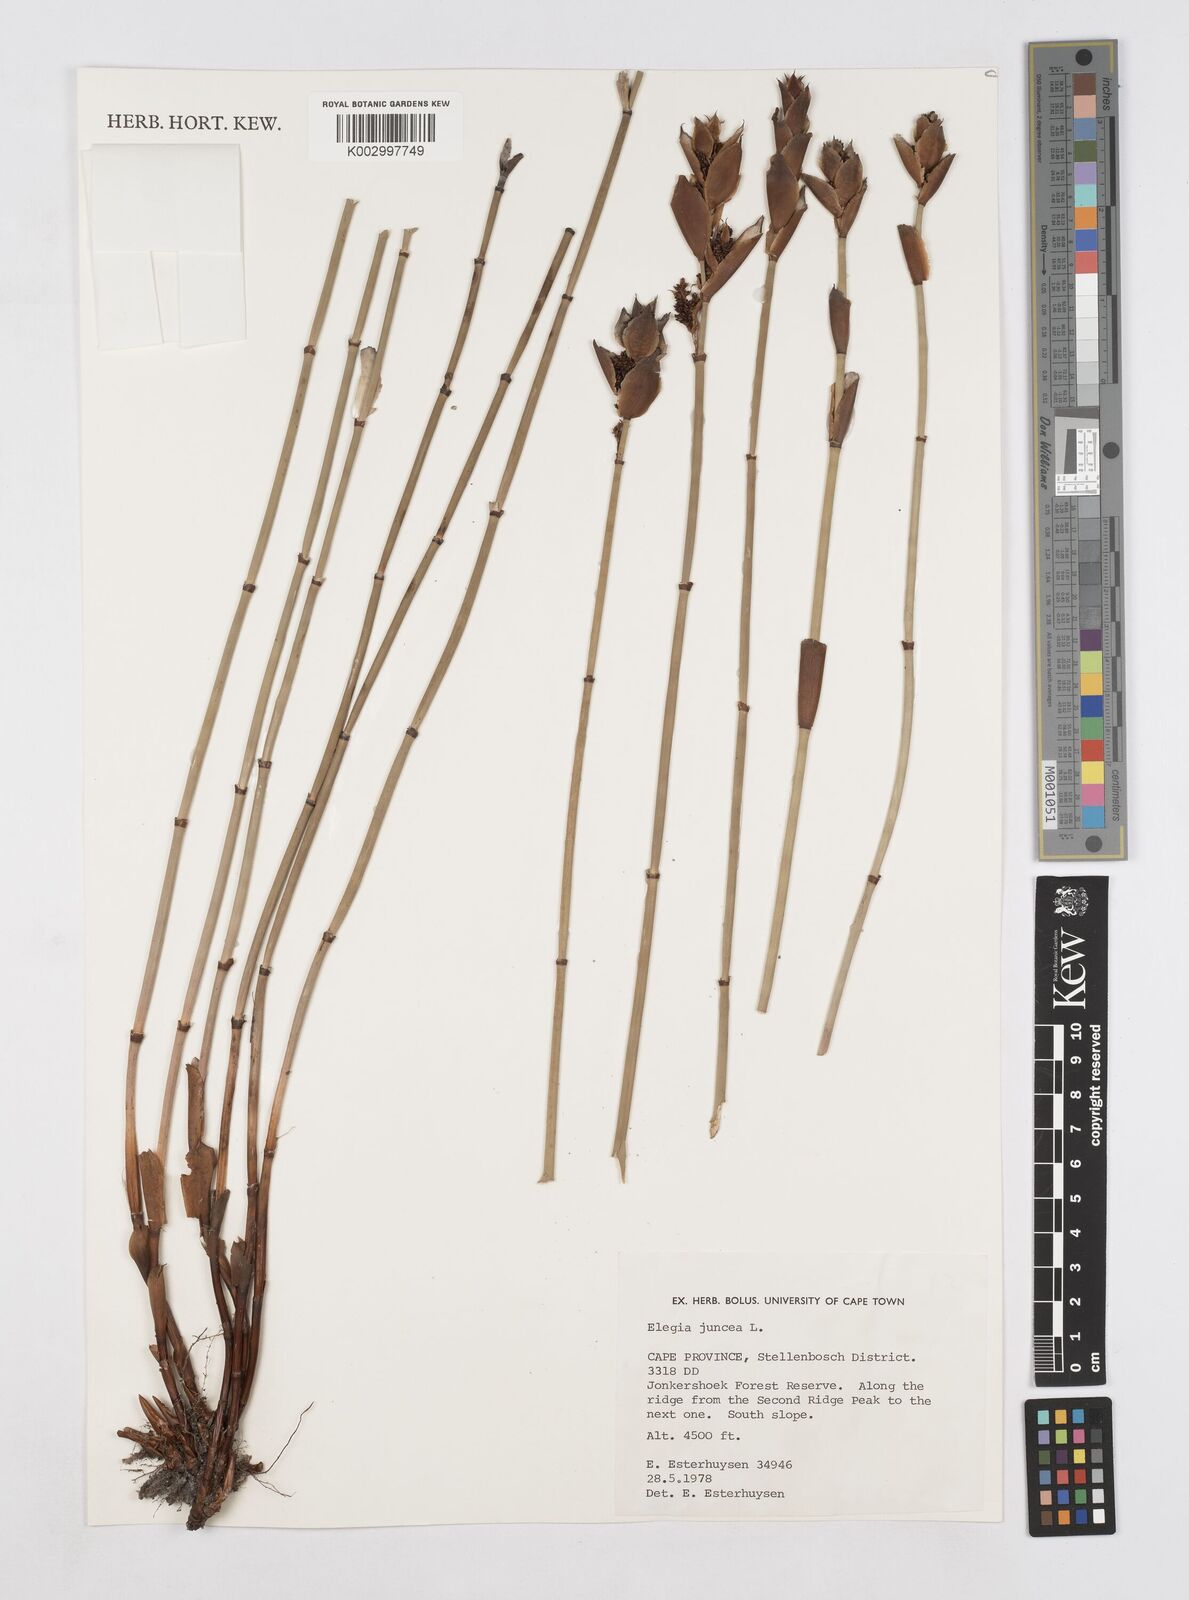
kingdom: Plantae
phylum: Tracheophyta
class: Liliopsida
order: Poales
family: Restionaceae
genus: Elegia
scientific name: Elegia juncea
